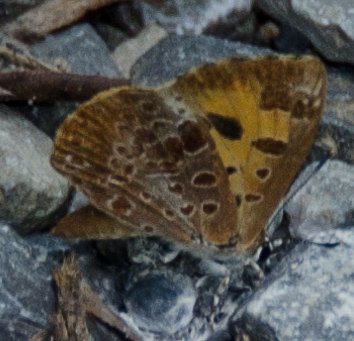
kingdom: Animalia
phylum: Arthropoda
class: Insecta
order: Lepidoptera
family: Lycaenidae
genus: Feniseca
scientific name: Feniseca tarquinius
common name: Harvester
